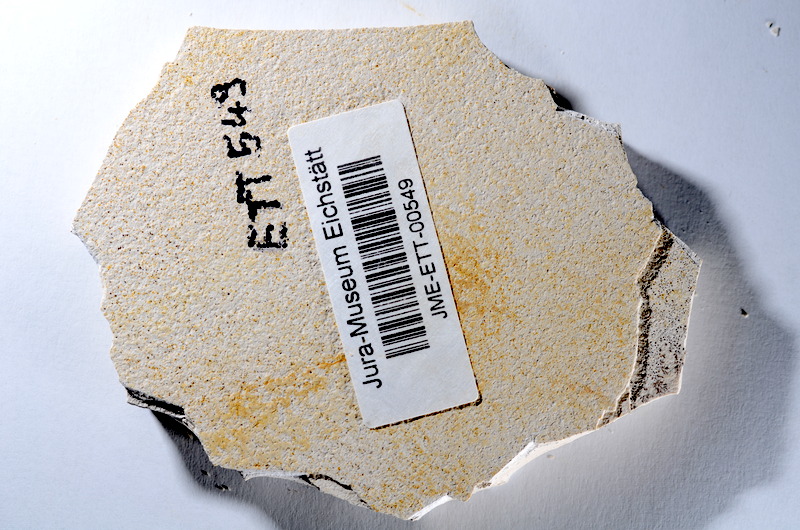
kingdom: Animalia
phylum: Chordata
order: Salmoniformes
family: Orthogonikleithridae
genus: Orthogonikleithrus
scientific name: Orthogonikleithrus hoelli
